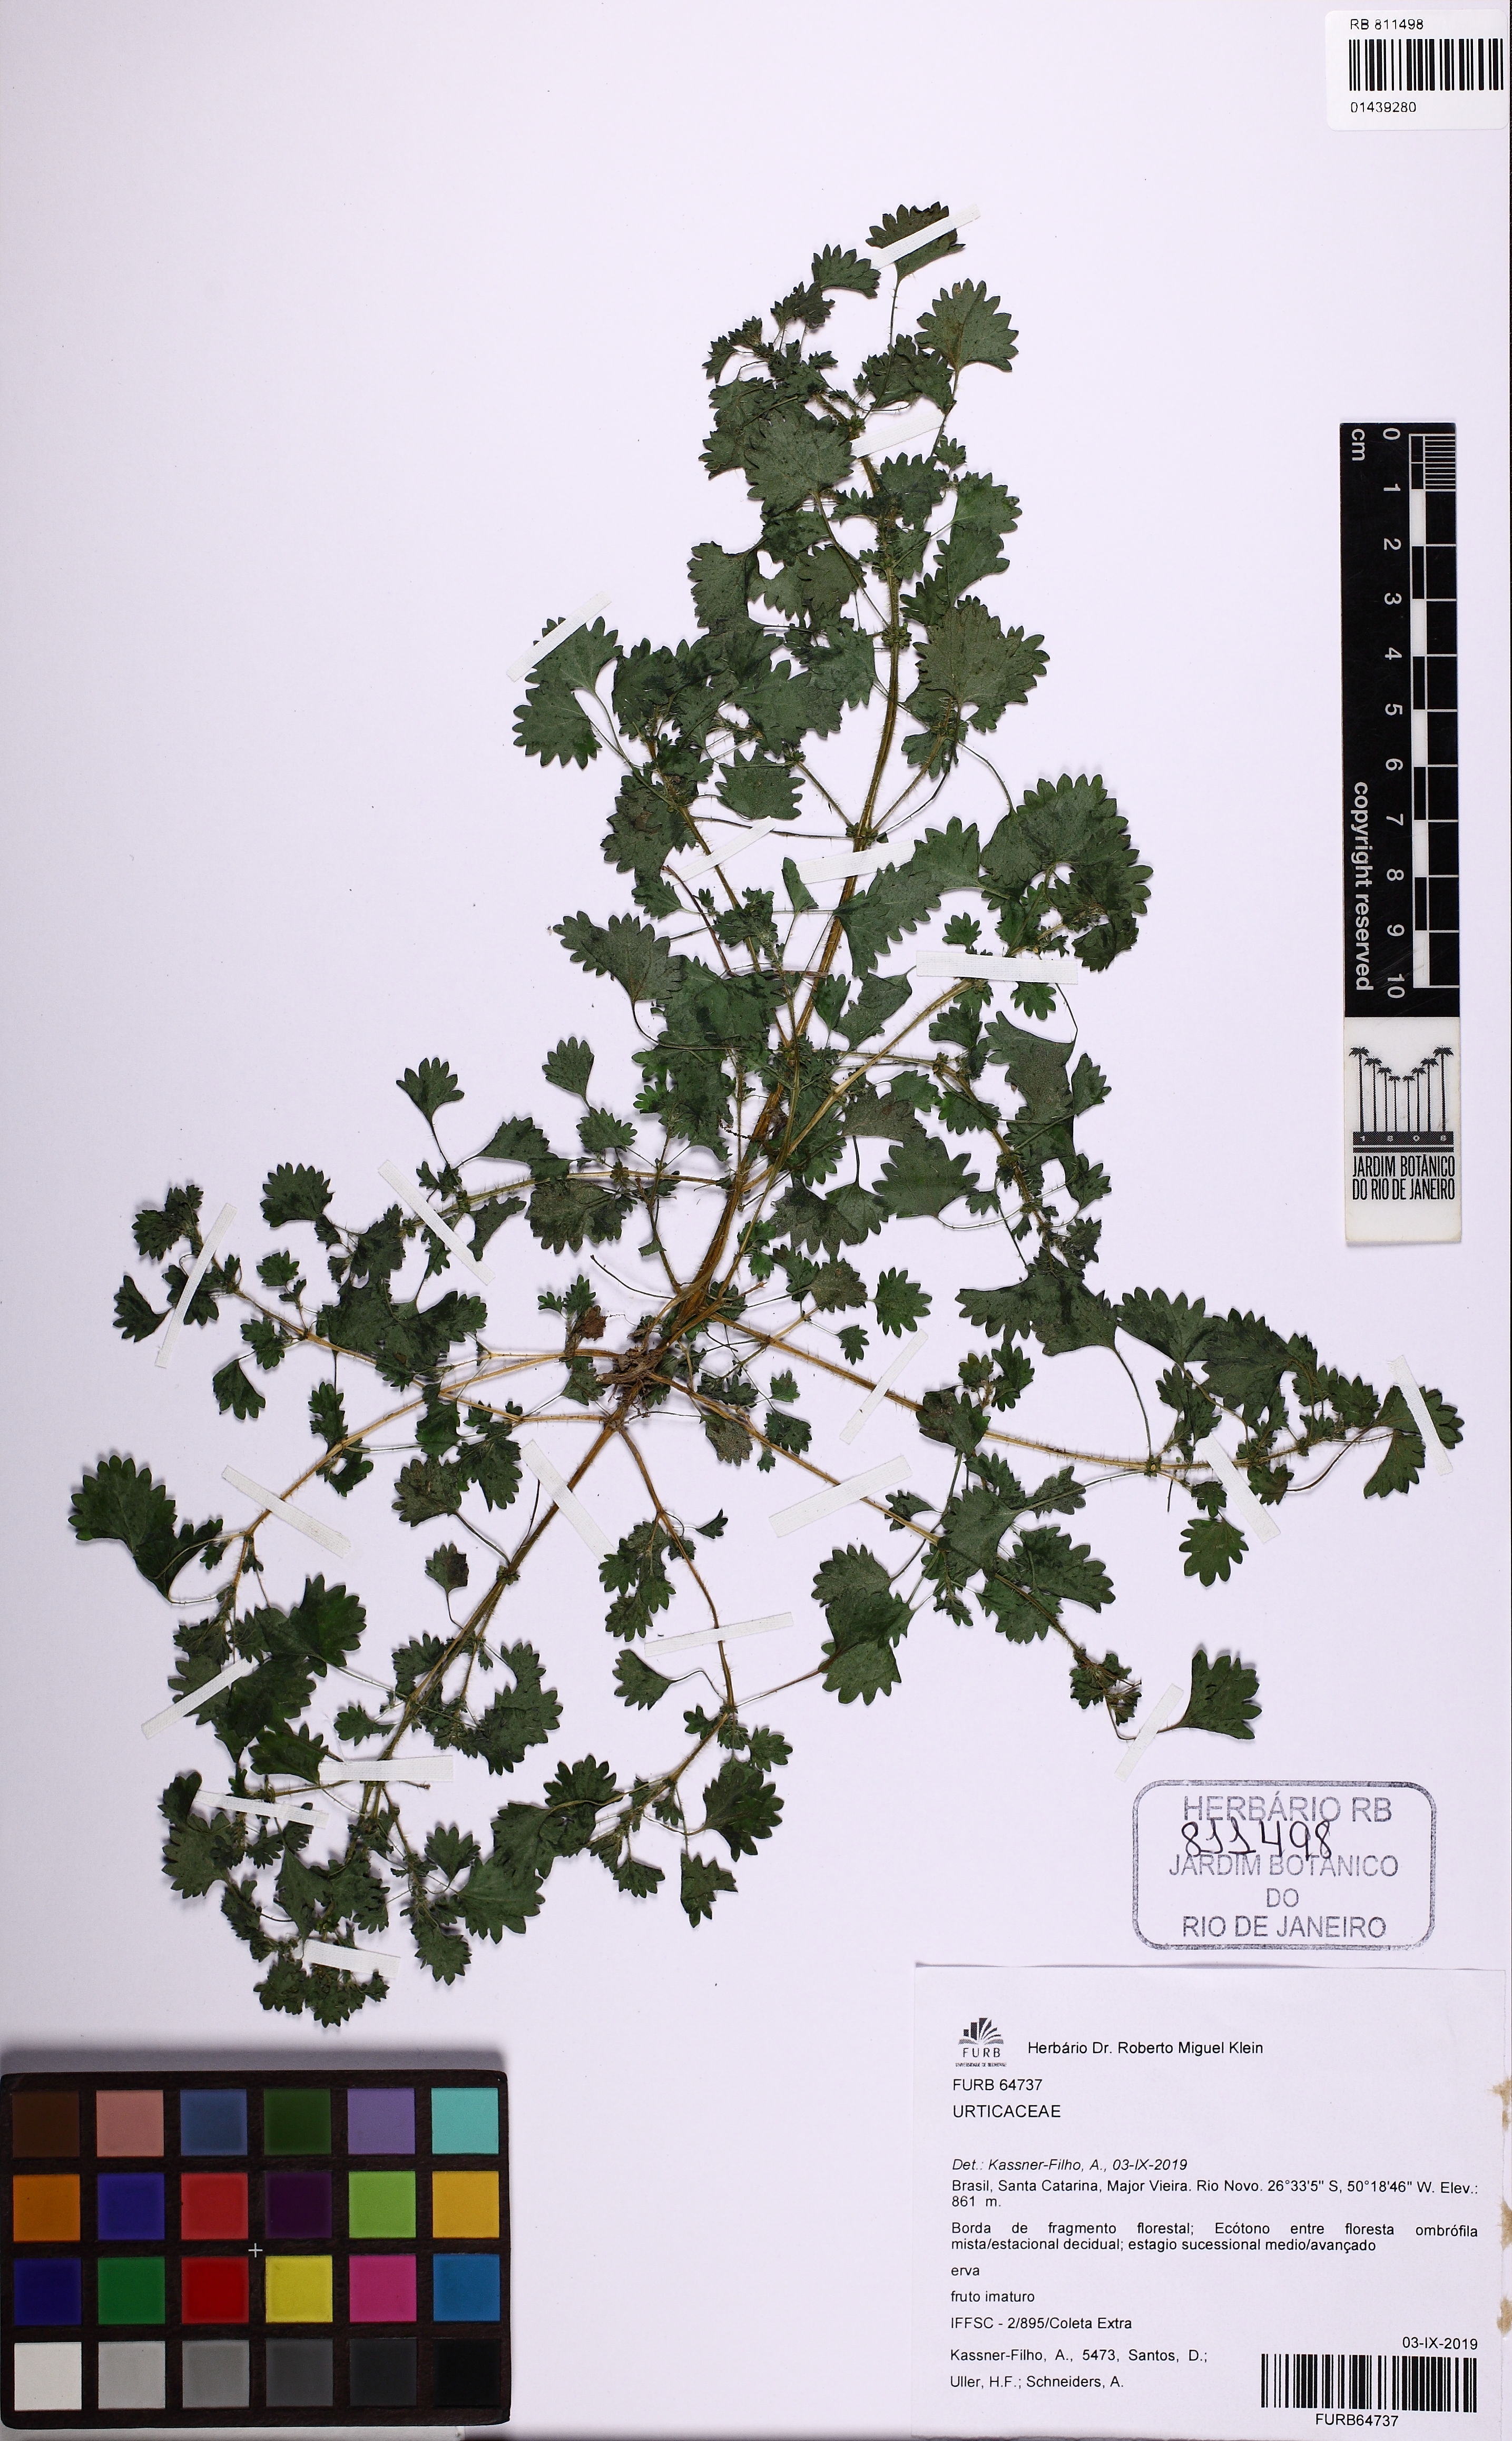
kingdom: Plantae
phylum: Tracheophyta
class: Magnoliopsida
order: Rosales
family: Urticaceae
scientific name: Urticaceae
